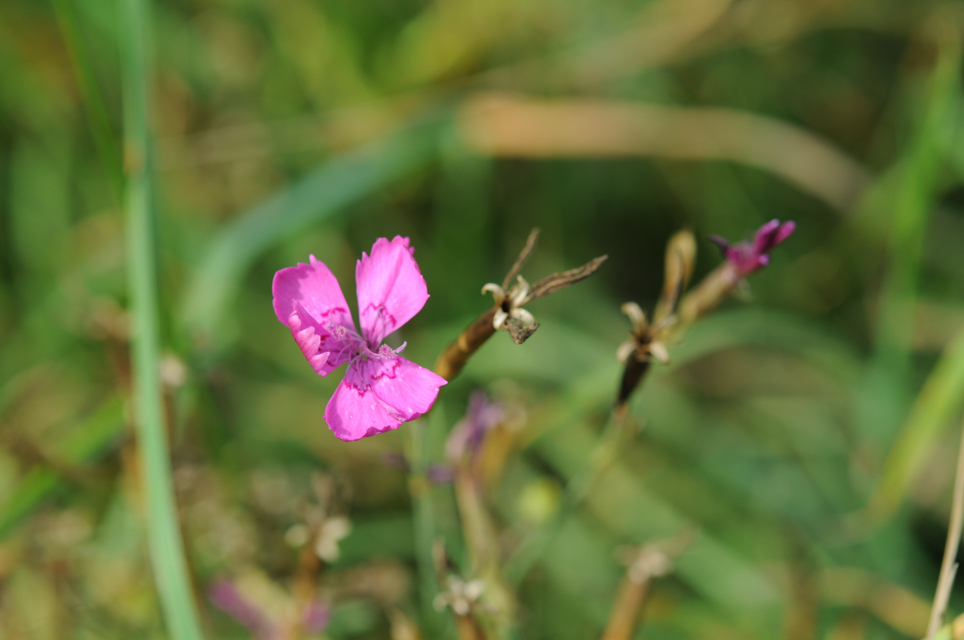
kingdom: Plantae
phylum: Tracheophyta
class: Magnoliopsida
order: Caryophyllales
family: Caryophyllaceae
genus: Dianthus
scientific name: Dianthus carthusianorum
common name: Carthusian pink
